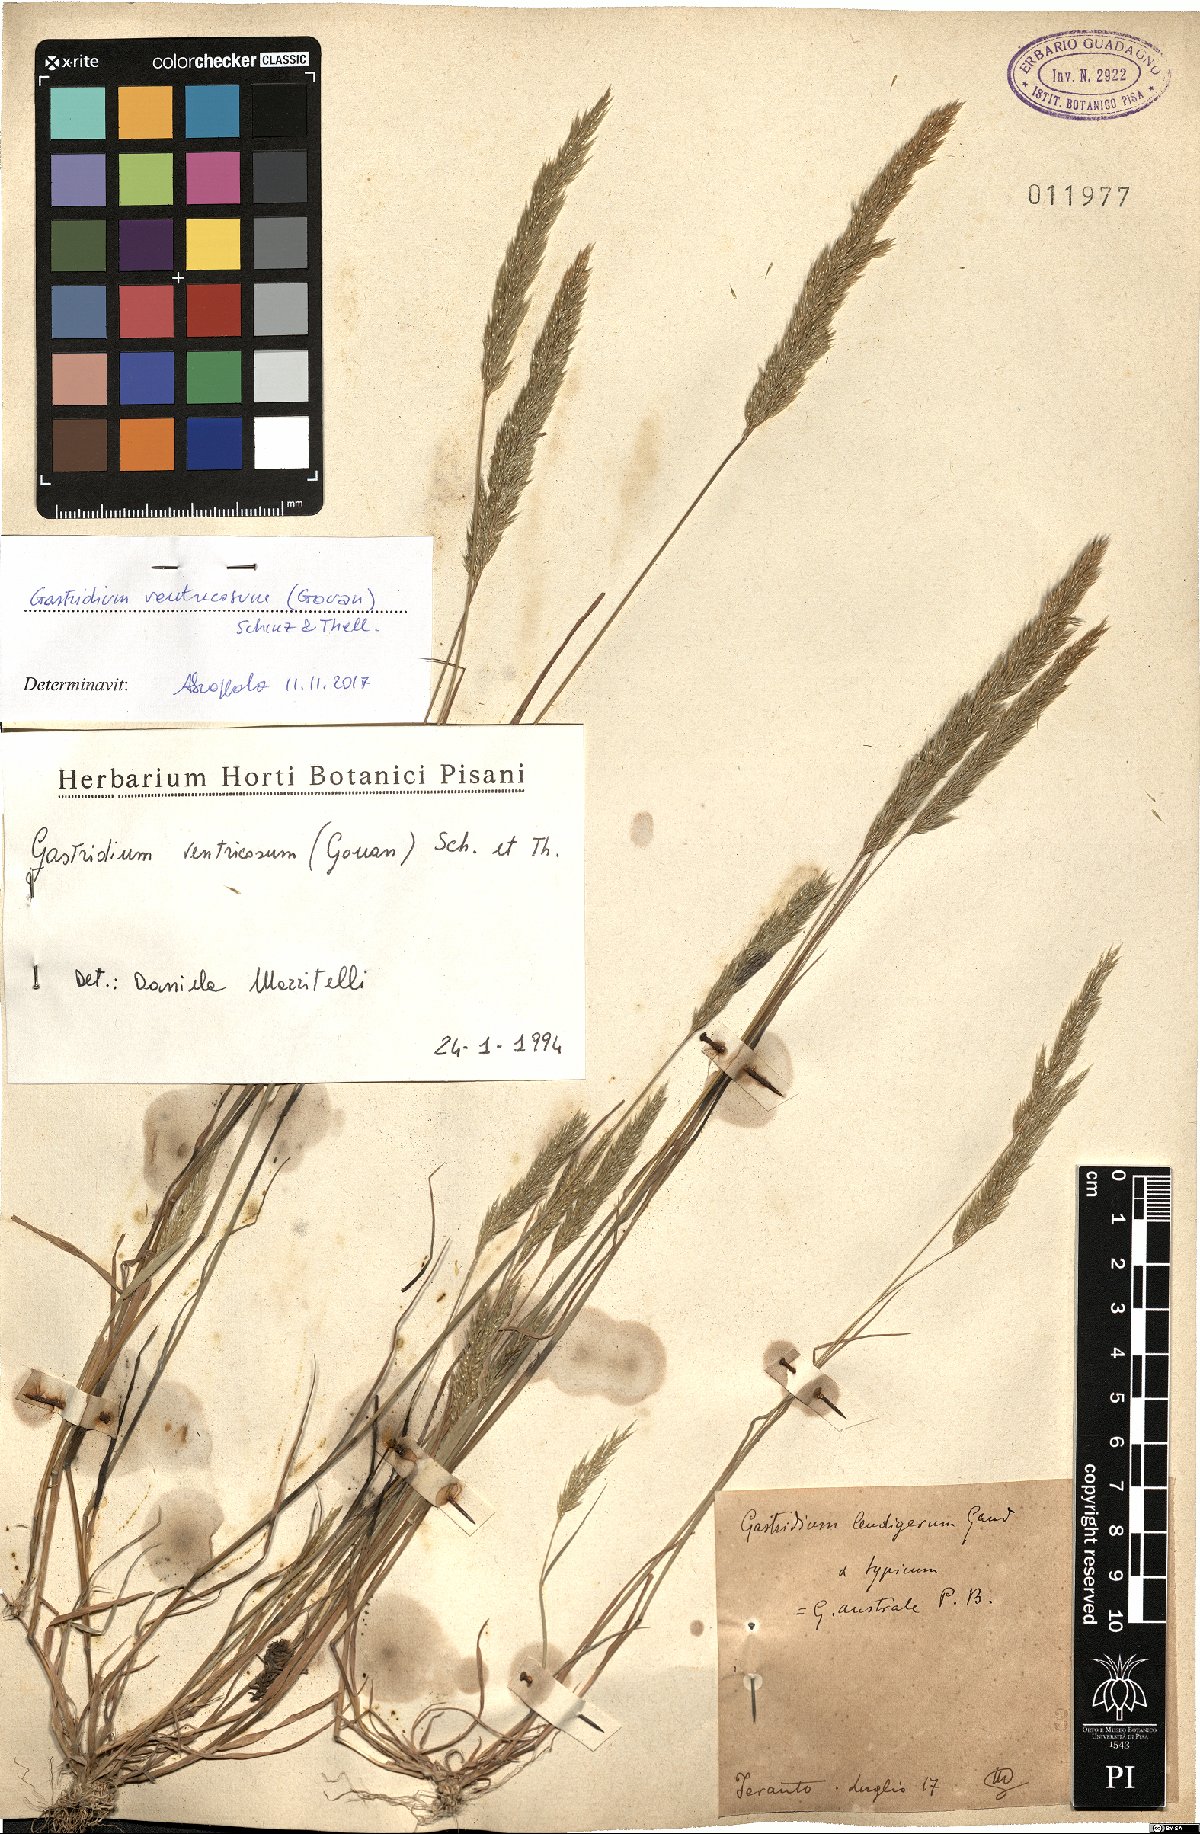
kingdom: Plantae
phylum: Tracheophyta
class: Liliopsida
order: Poales
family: Poaceae
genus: Gastridium
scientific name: Gastridium ventricosum
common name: Nit-grass
